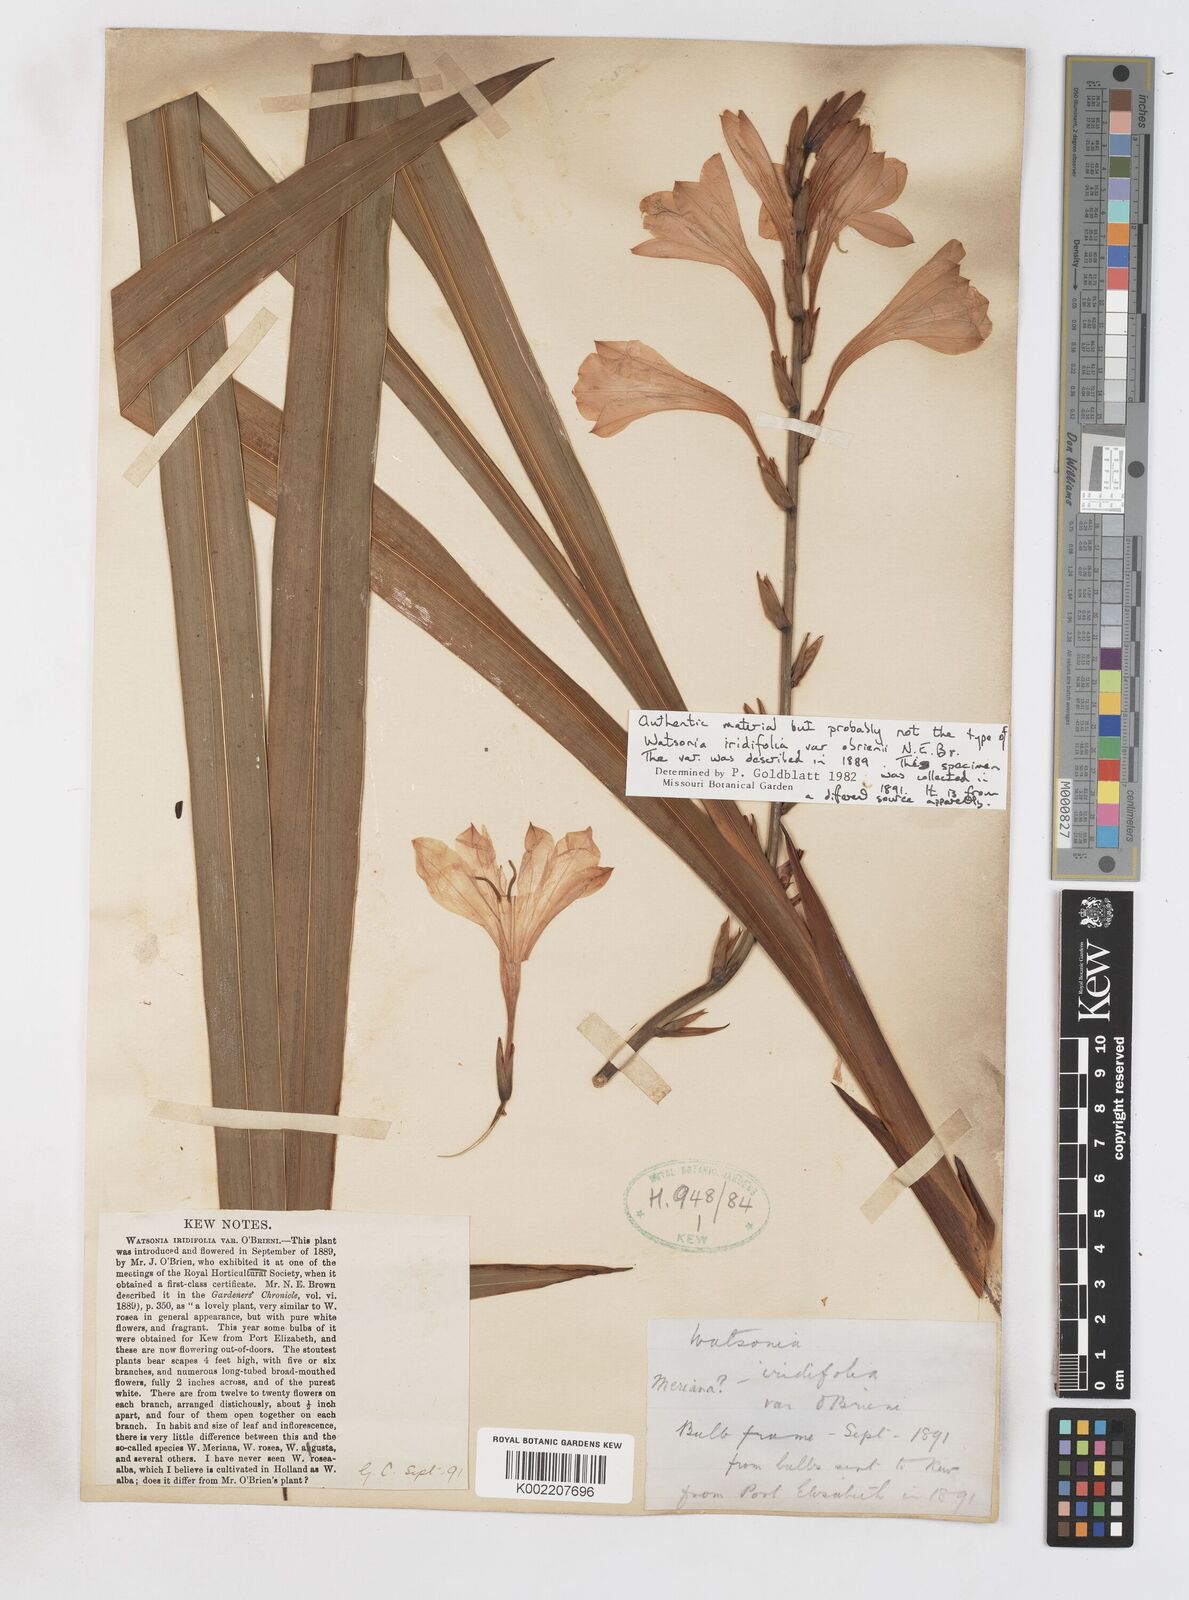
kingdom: Plantae
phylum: Tracheophyta
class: Liliopsida
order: Asparagales
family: Iridaceae
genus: Watsonia
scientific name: Watsonia borbonica
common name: Bugle-lily
